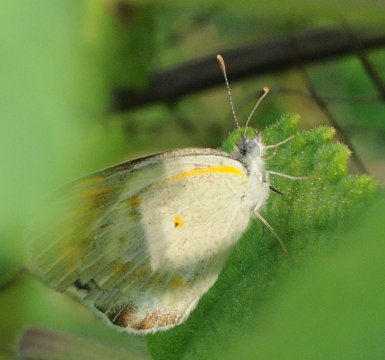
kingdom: Animalia
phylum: Arthropoda
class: Insecta
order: Lepidoptera
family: Pieridae
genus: Colotis
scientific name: Colotis antevippe
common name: Red Tip
